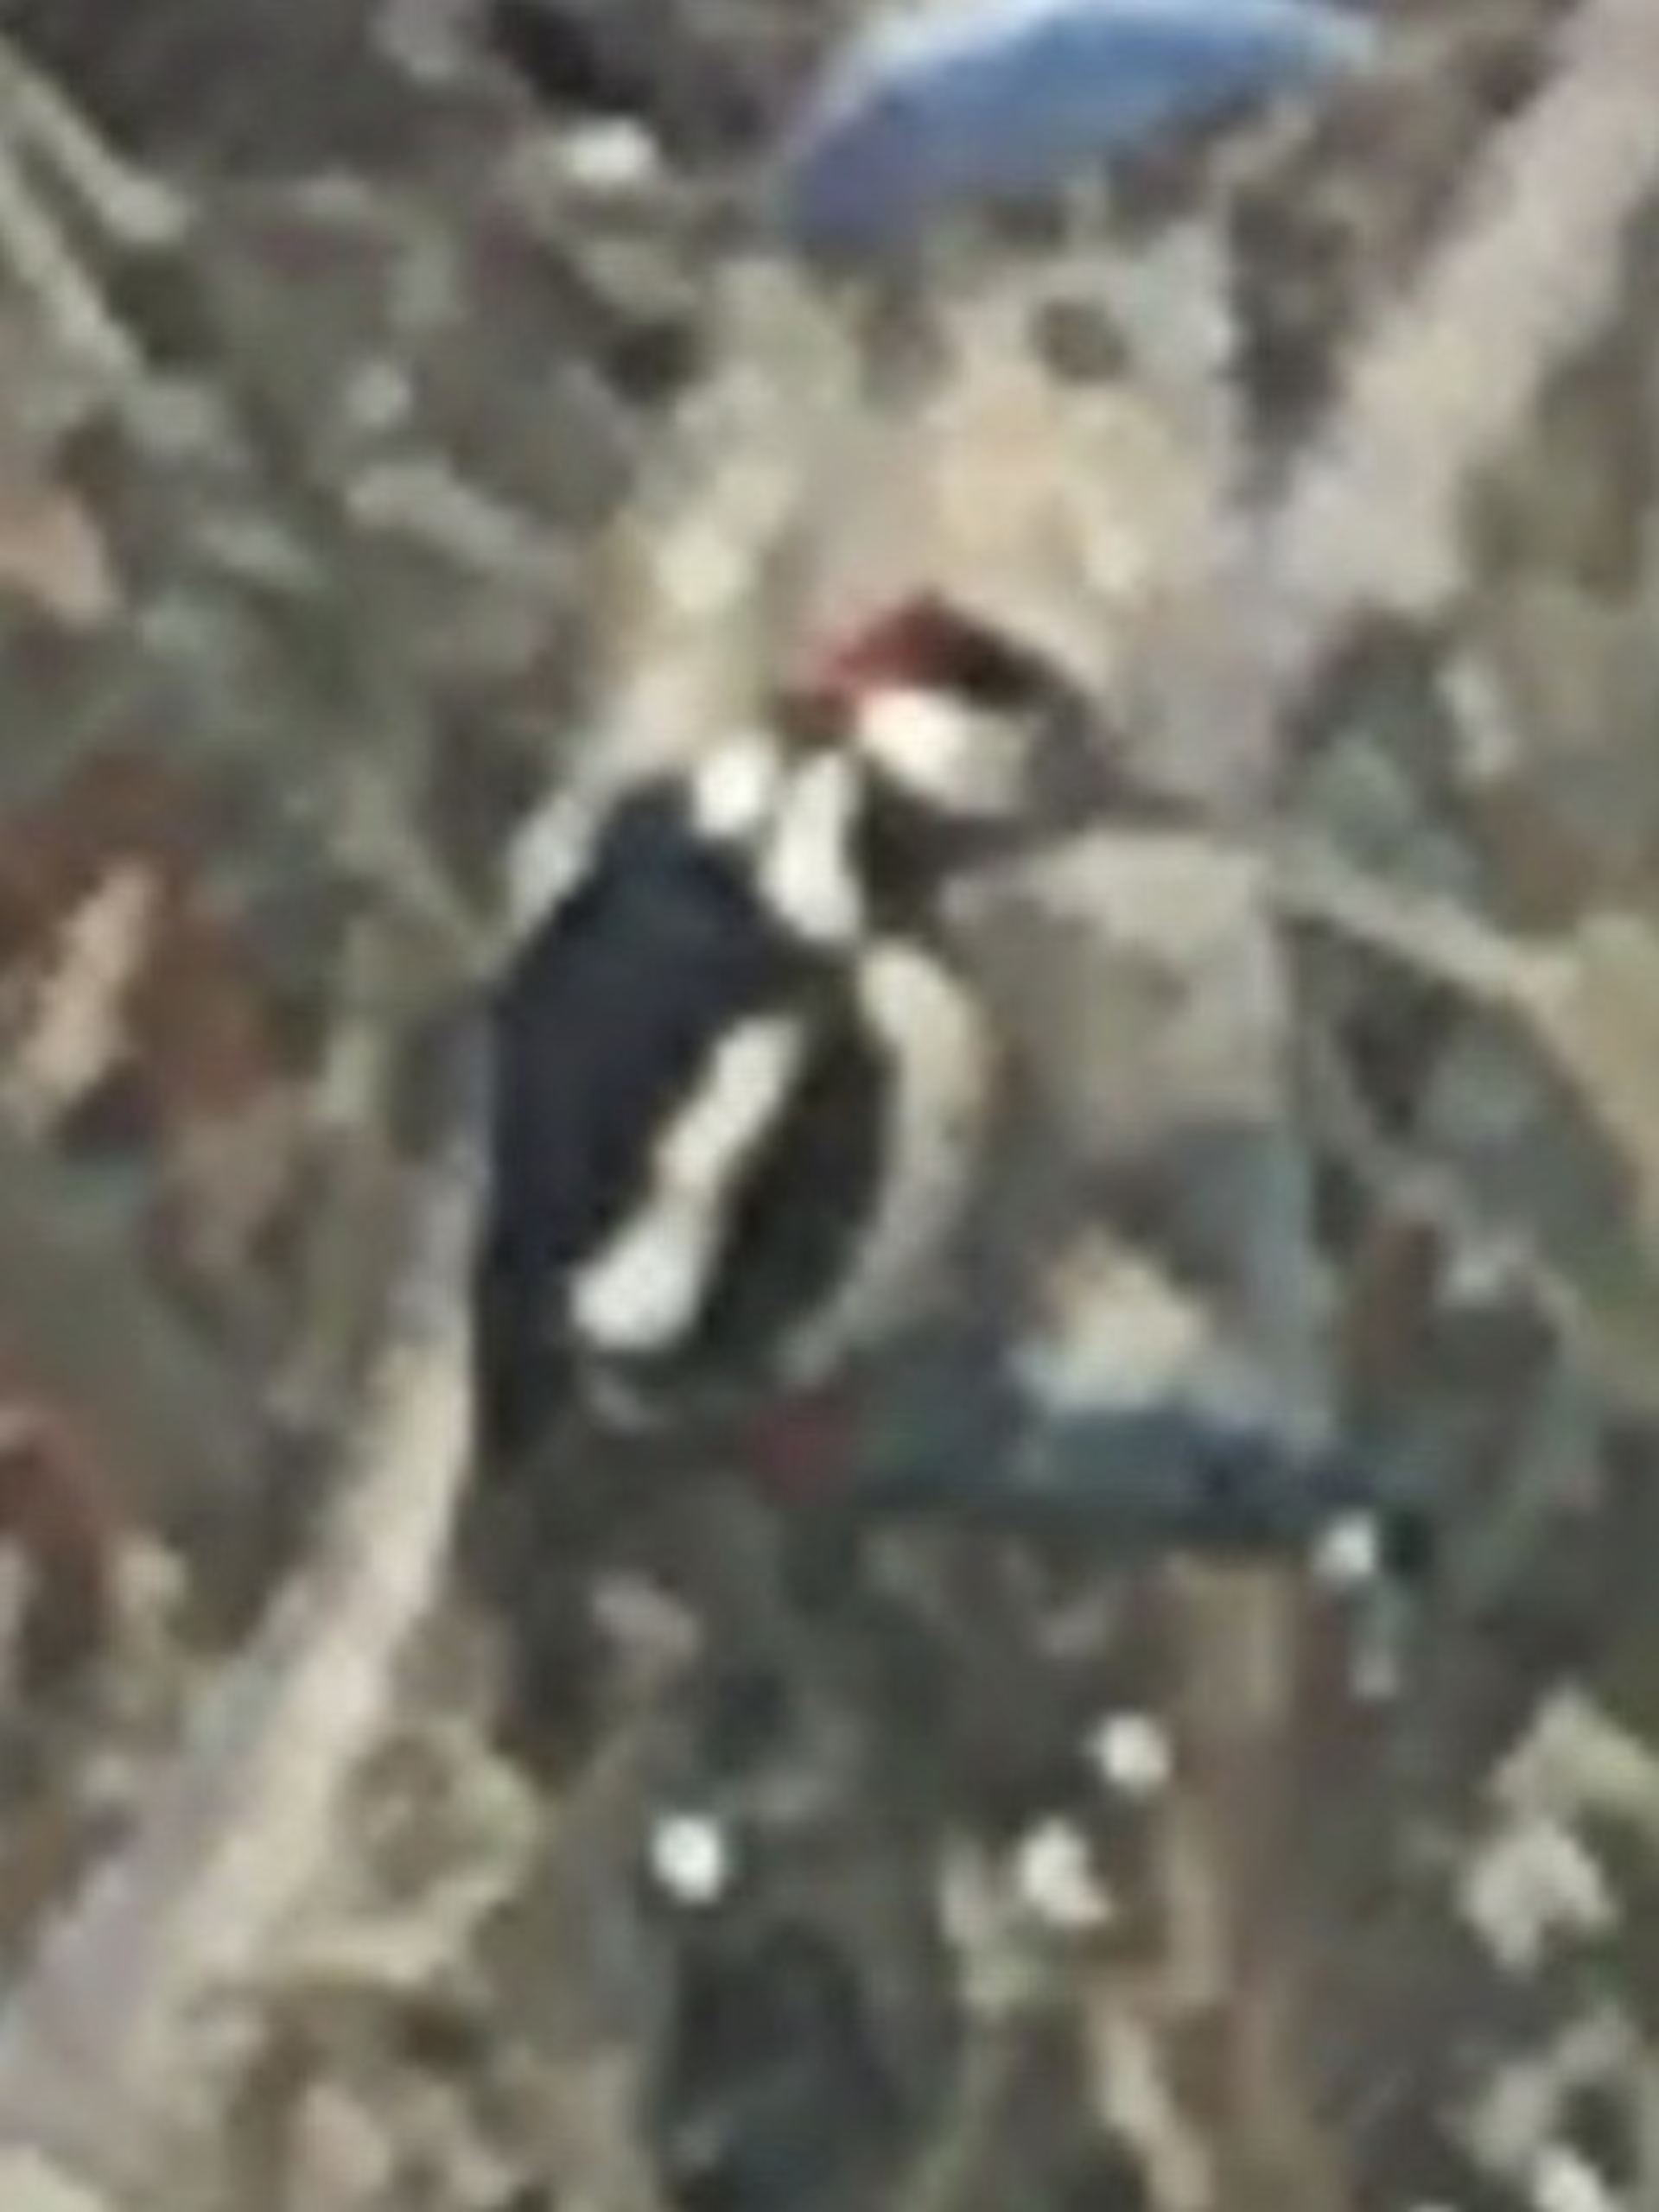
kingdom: Animalia
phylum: Chordata
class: Aves
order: Piciformes
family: Picidae
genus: Dendrocopos
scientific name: Dendrocopos major
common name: Stor flagspætte
